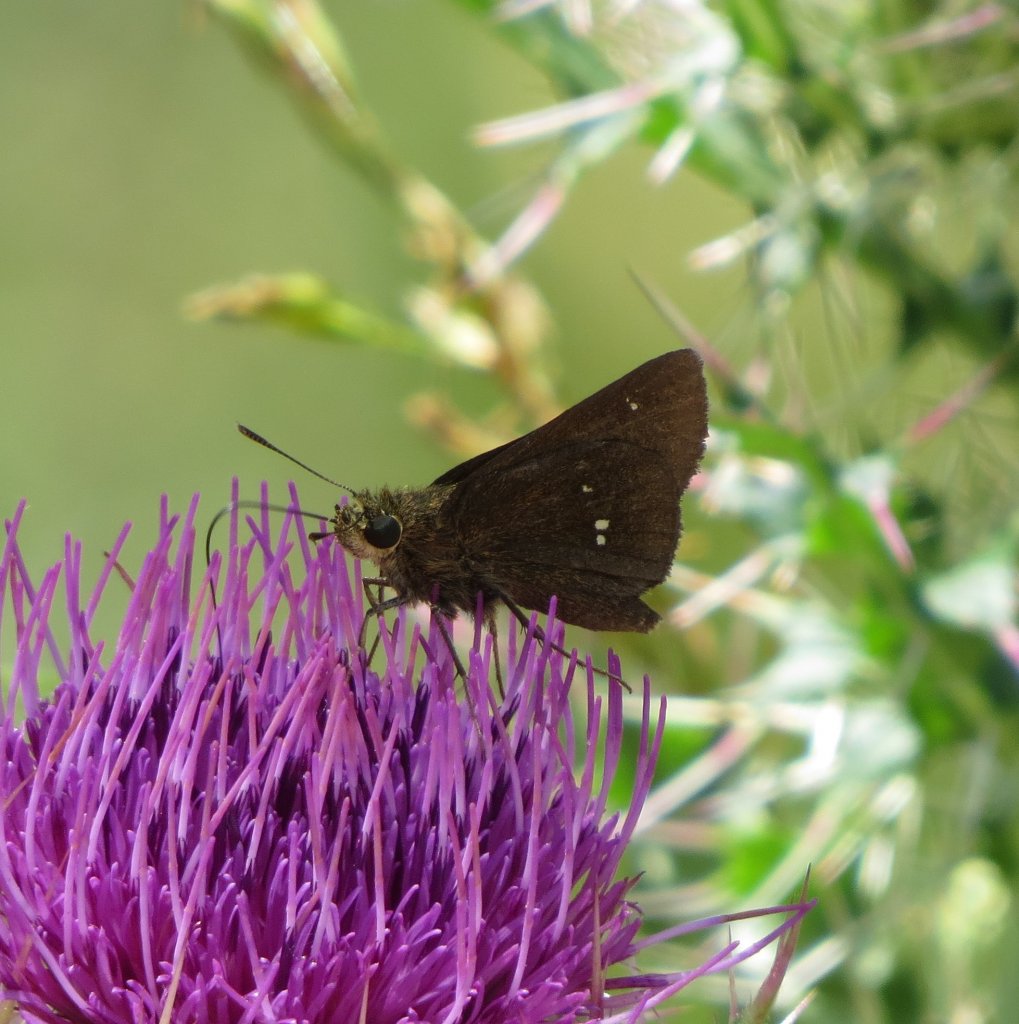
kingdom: Animalia
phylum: Arthropoda
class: Insecta
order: Lepidoptera
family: Hesperiidae
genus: Oligoria
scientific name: Oligoria maculata
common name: Twin-spot Skipper
